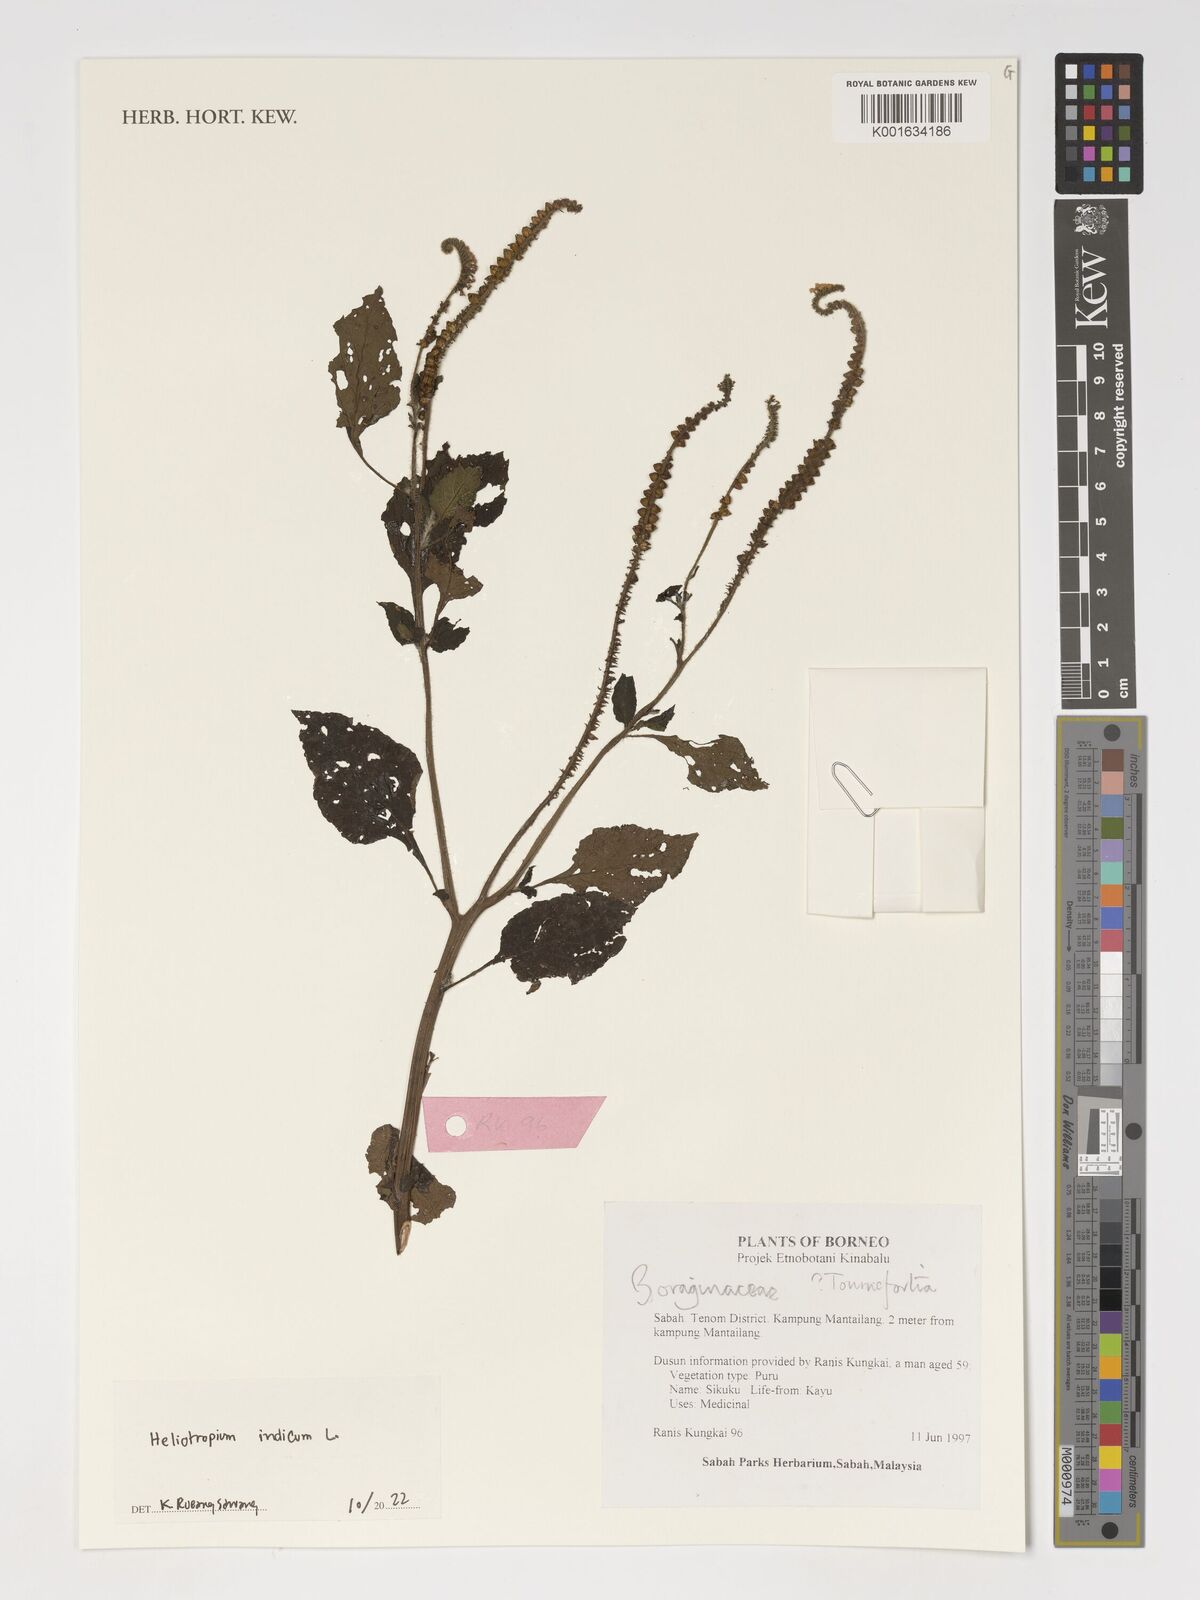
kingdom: Plantae
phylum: Tracheophyta
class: Magnoliopsida
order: Boraginales
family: Heliotropiaceae
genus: Heliotropium
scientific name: Heliotropium indicum
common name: Indian heliotrope
